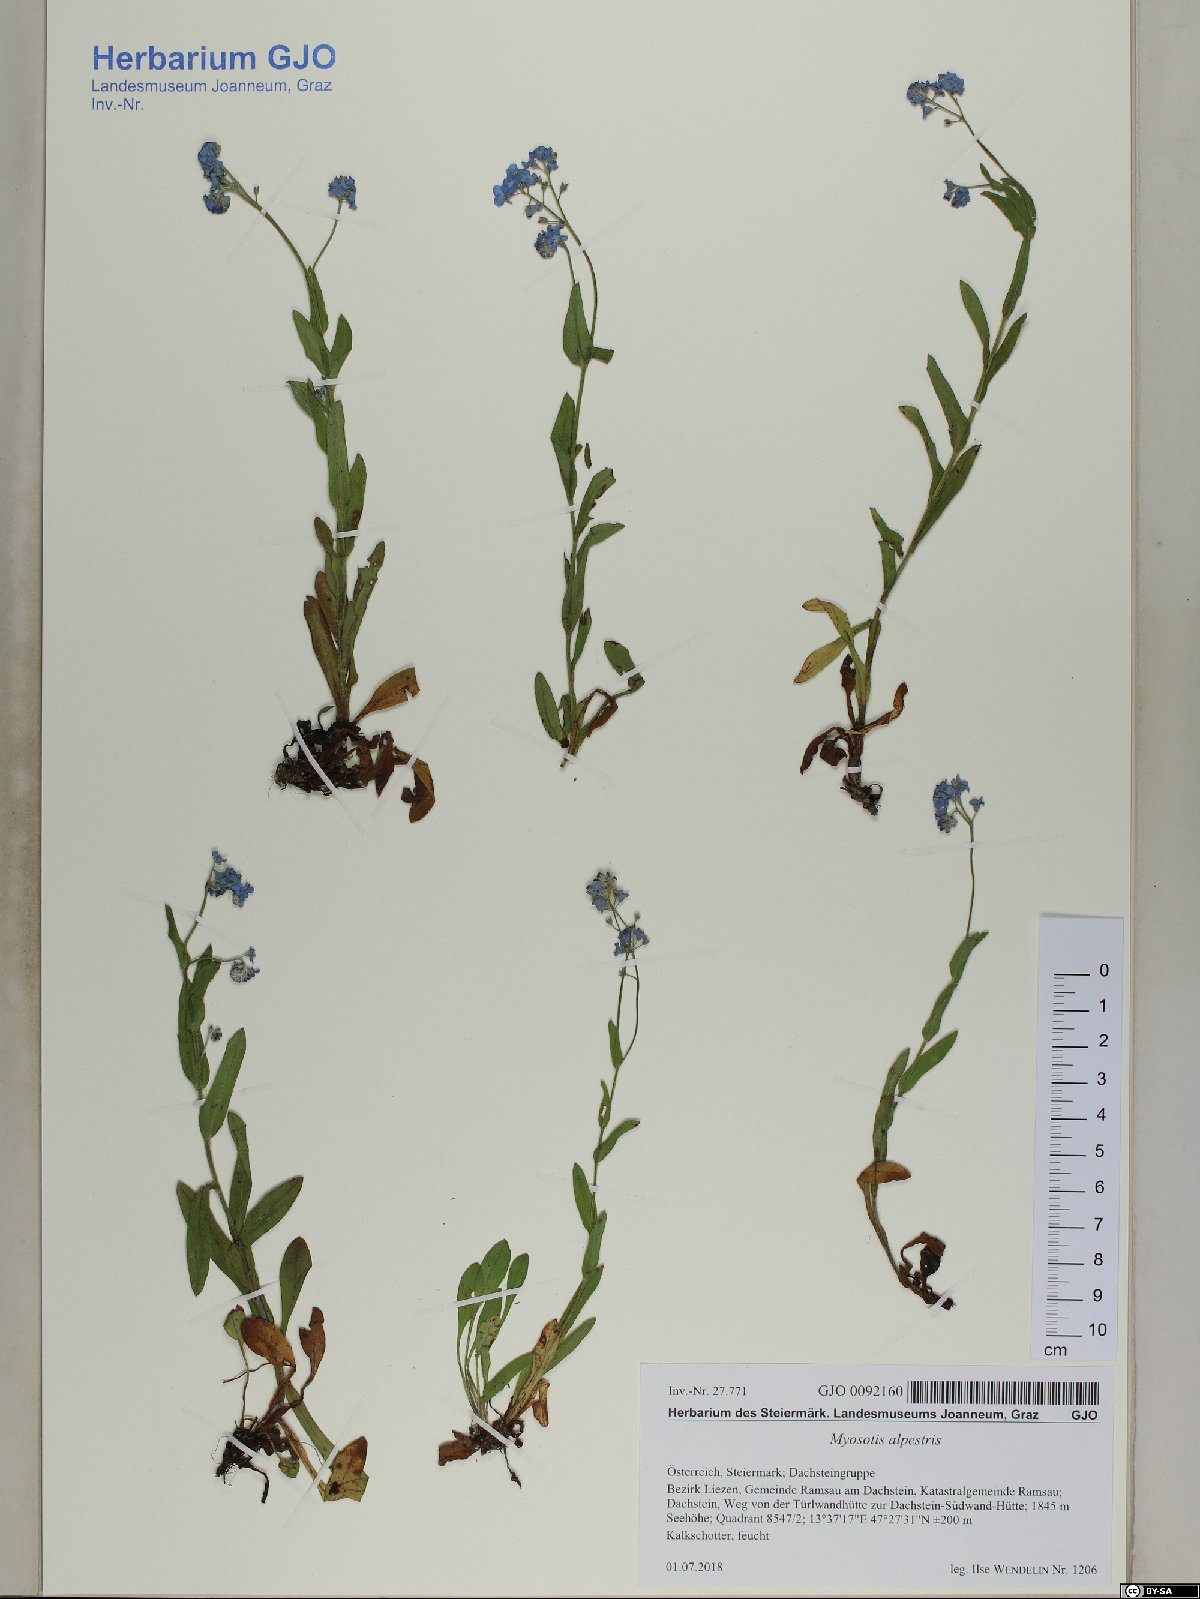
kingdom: Plantae
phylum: Tracheophyta
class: Magnoliopsida
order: Boraginales
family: Boraginaceae
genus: Myosotis
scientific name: Myosotis alpestris
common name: Alpine forget-me-not
